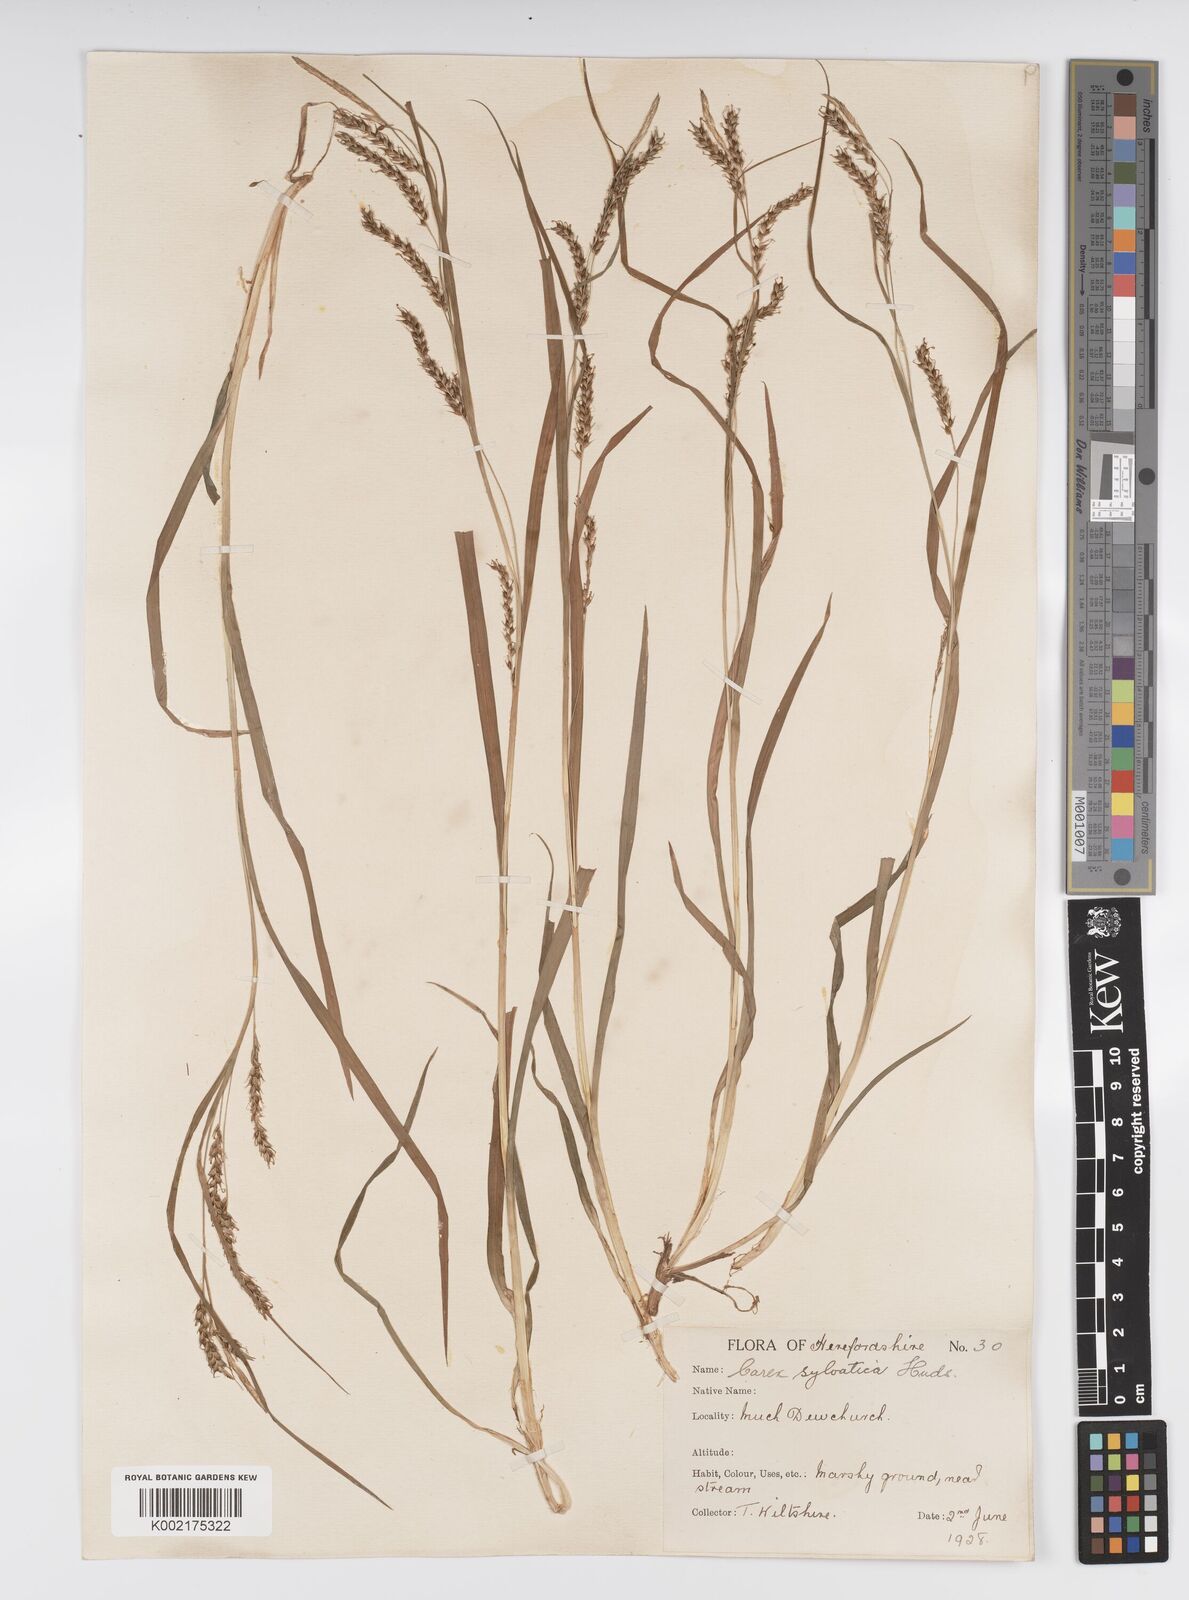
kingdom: Plantae
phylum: Tracheophyta
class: Liliopsida
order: Poales
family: Cyperaceae
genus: Carex
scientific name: Carex sylvatica
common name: Wood-sedge
